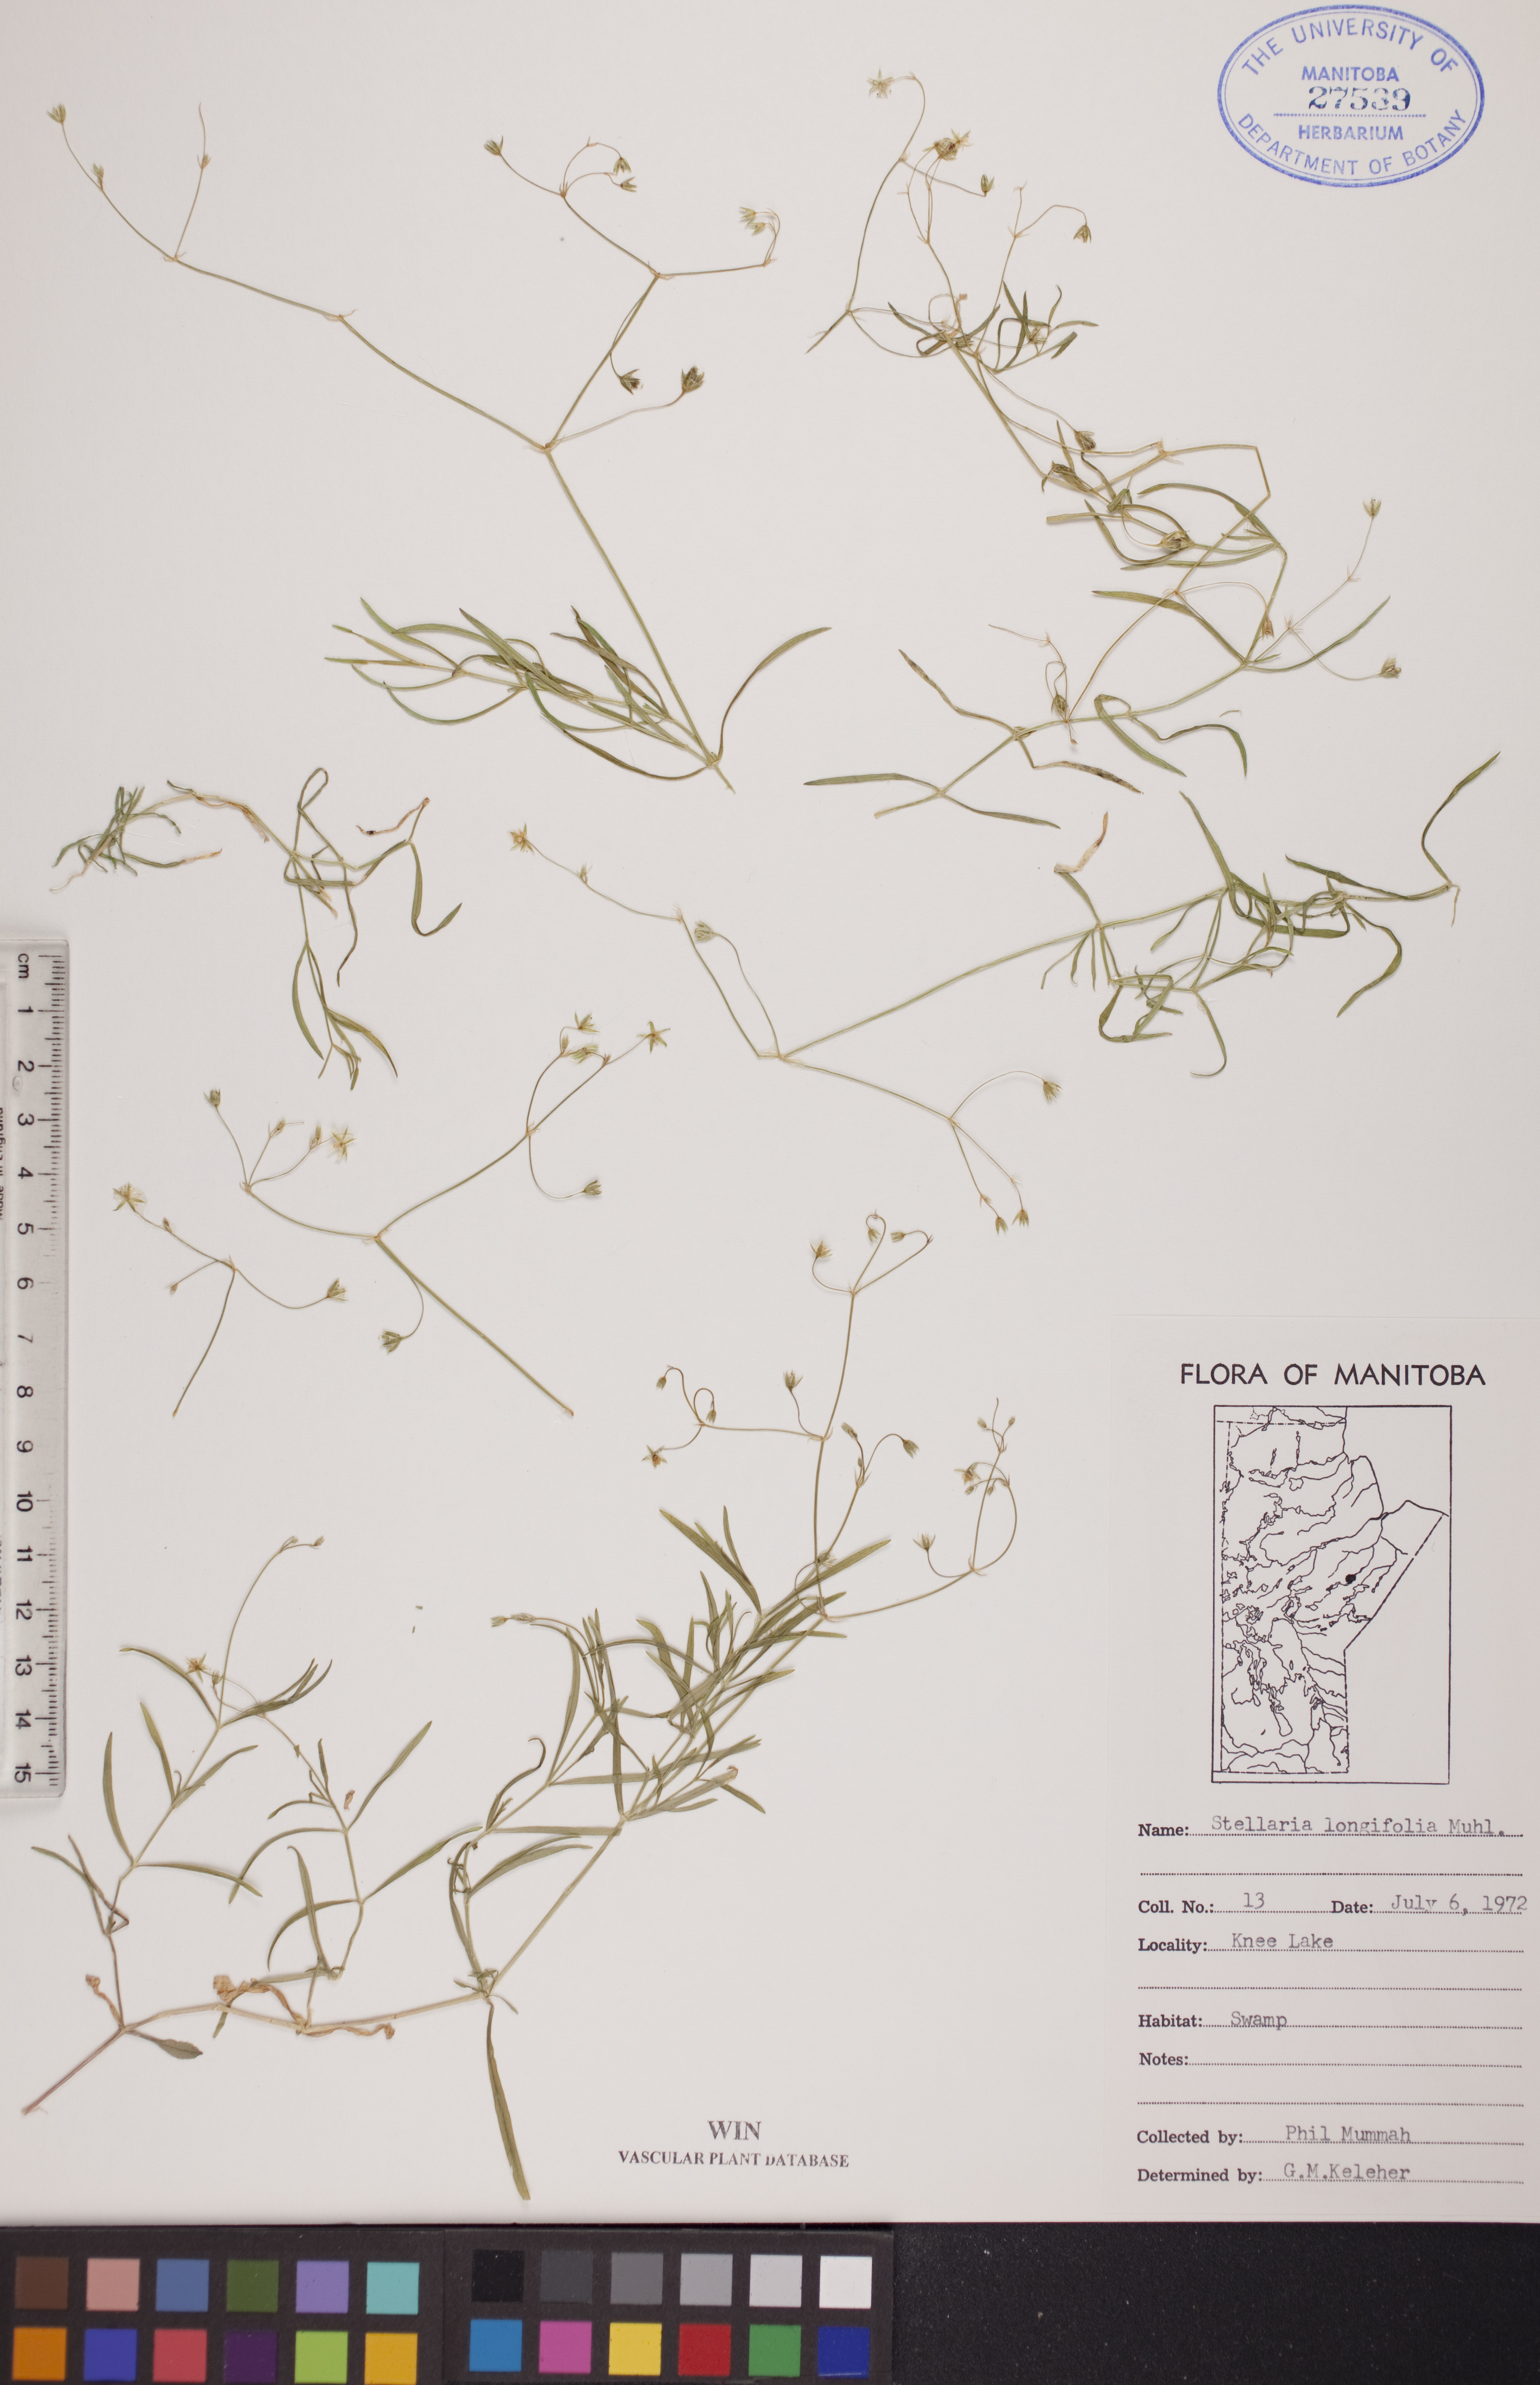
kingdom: Plantae
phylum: Tracheophyta
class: Magnoliopsida
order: Caryophyllales
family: Caryophyllaceae
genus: Stellaria
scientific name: Stellaria longifolia
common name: Long-leaved chickweed
